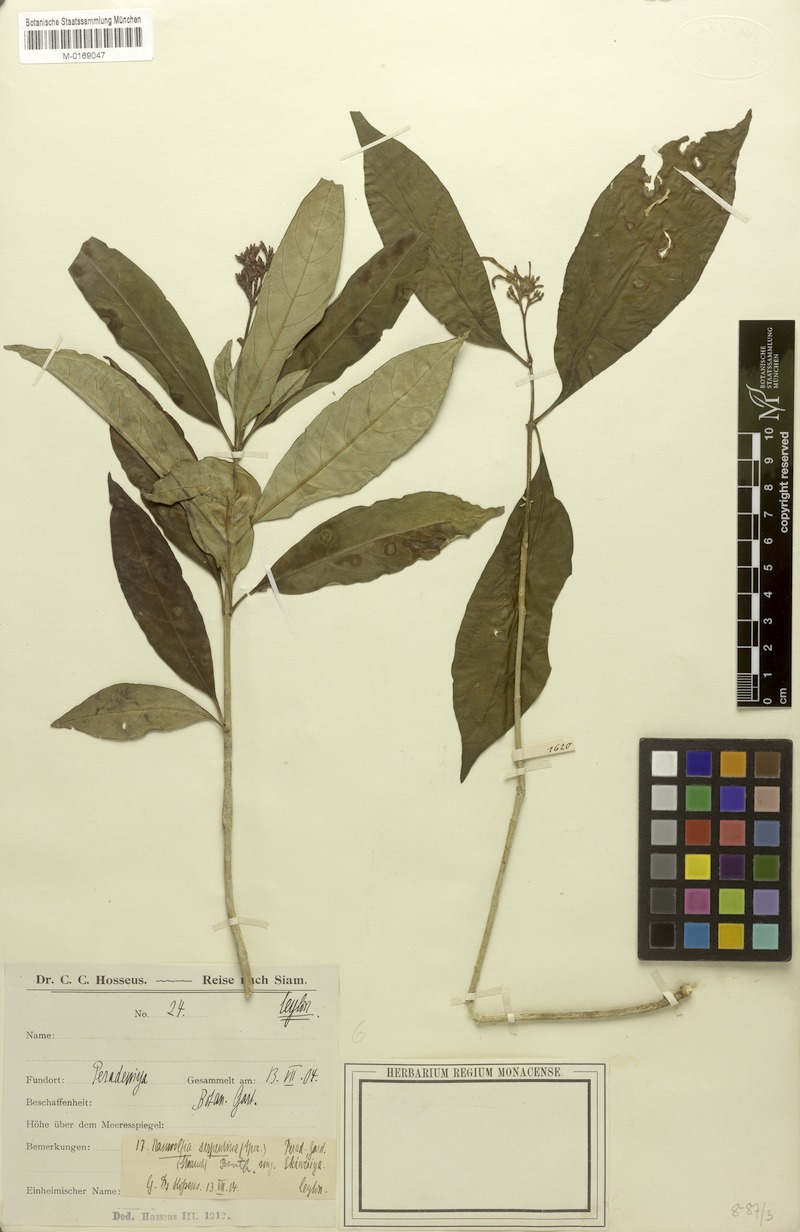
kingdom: Plantae
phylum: Tracheophyta
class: Magnoliopsida
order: Gentianales
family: Apocynaceae
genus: Rauvolfia
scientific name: Rauvolfia serpentina
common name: Ajmaline
